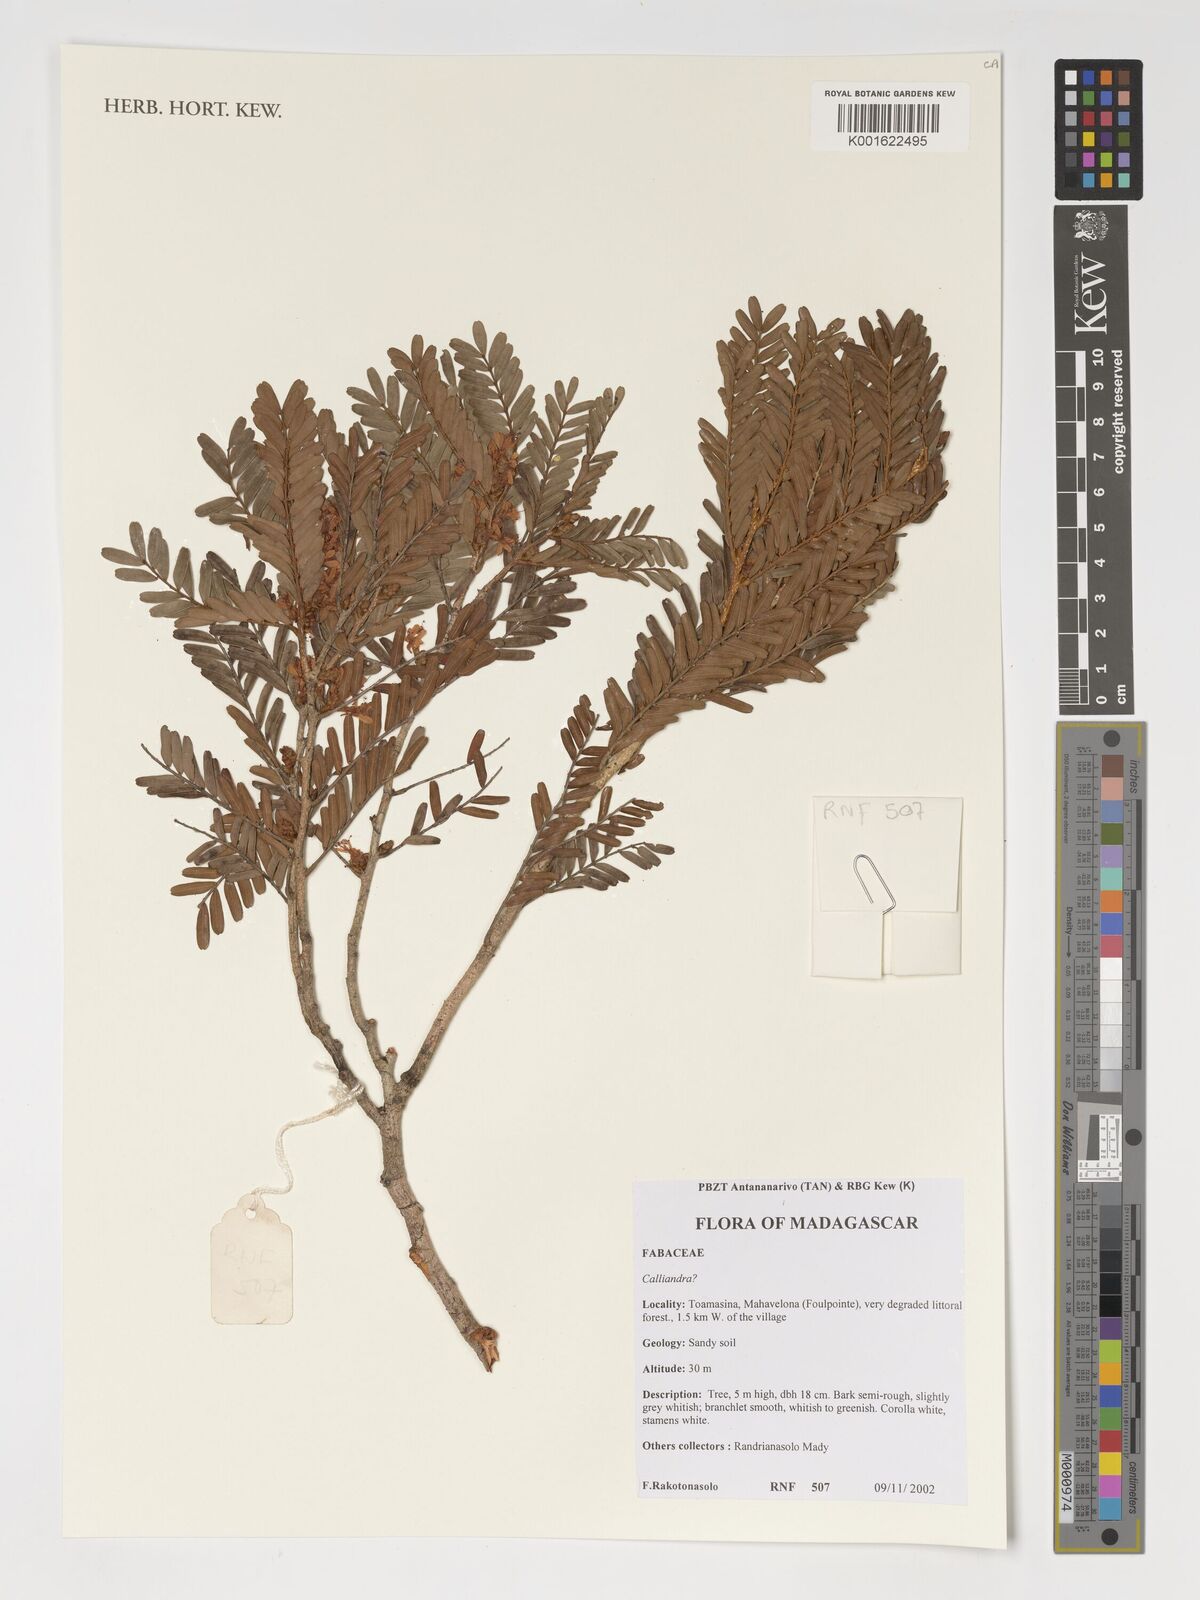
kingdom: Plantae
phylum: Tracheophyta
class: Magnoliopsida
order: Fabales
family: Fabaceae
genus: Calliandra
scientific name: Calliandra
